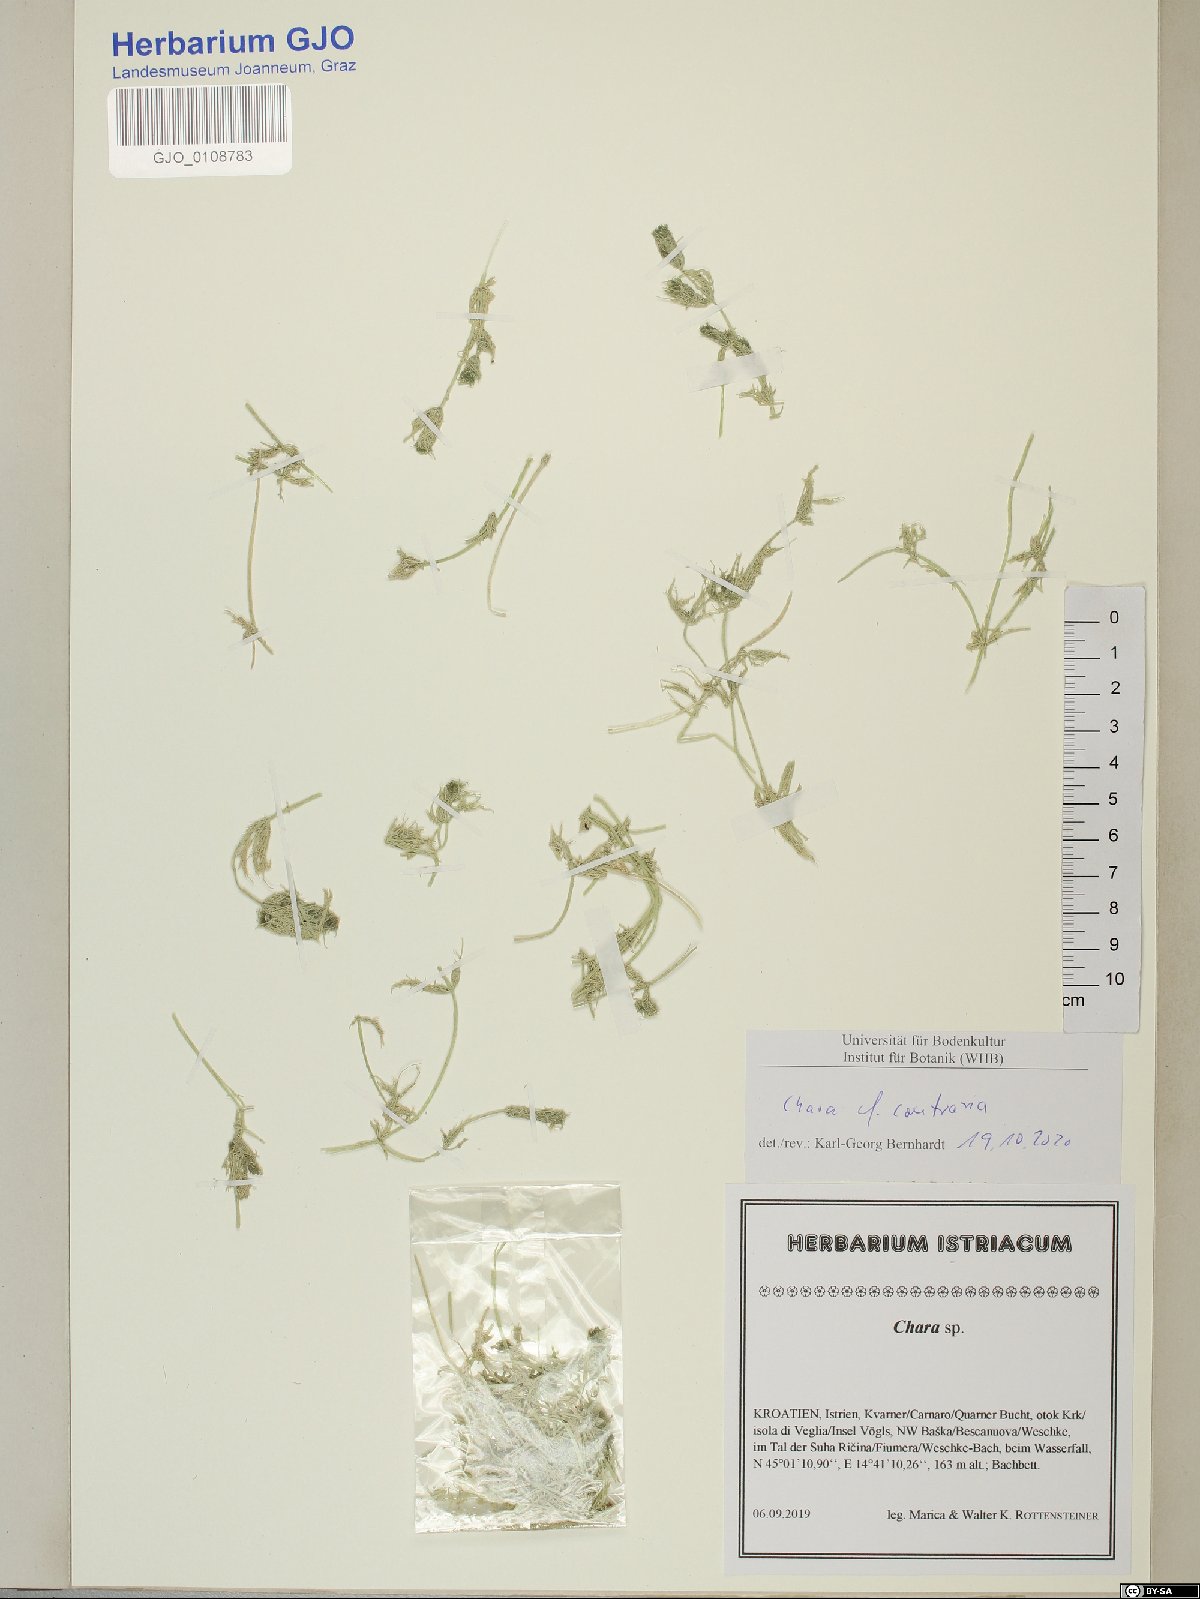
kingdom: Plantae
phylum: Charophyta
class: Charophyceae
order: Charales
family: Characeae
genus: Chara
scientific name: Chara contraria
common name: Opposite stonewort
